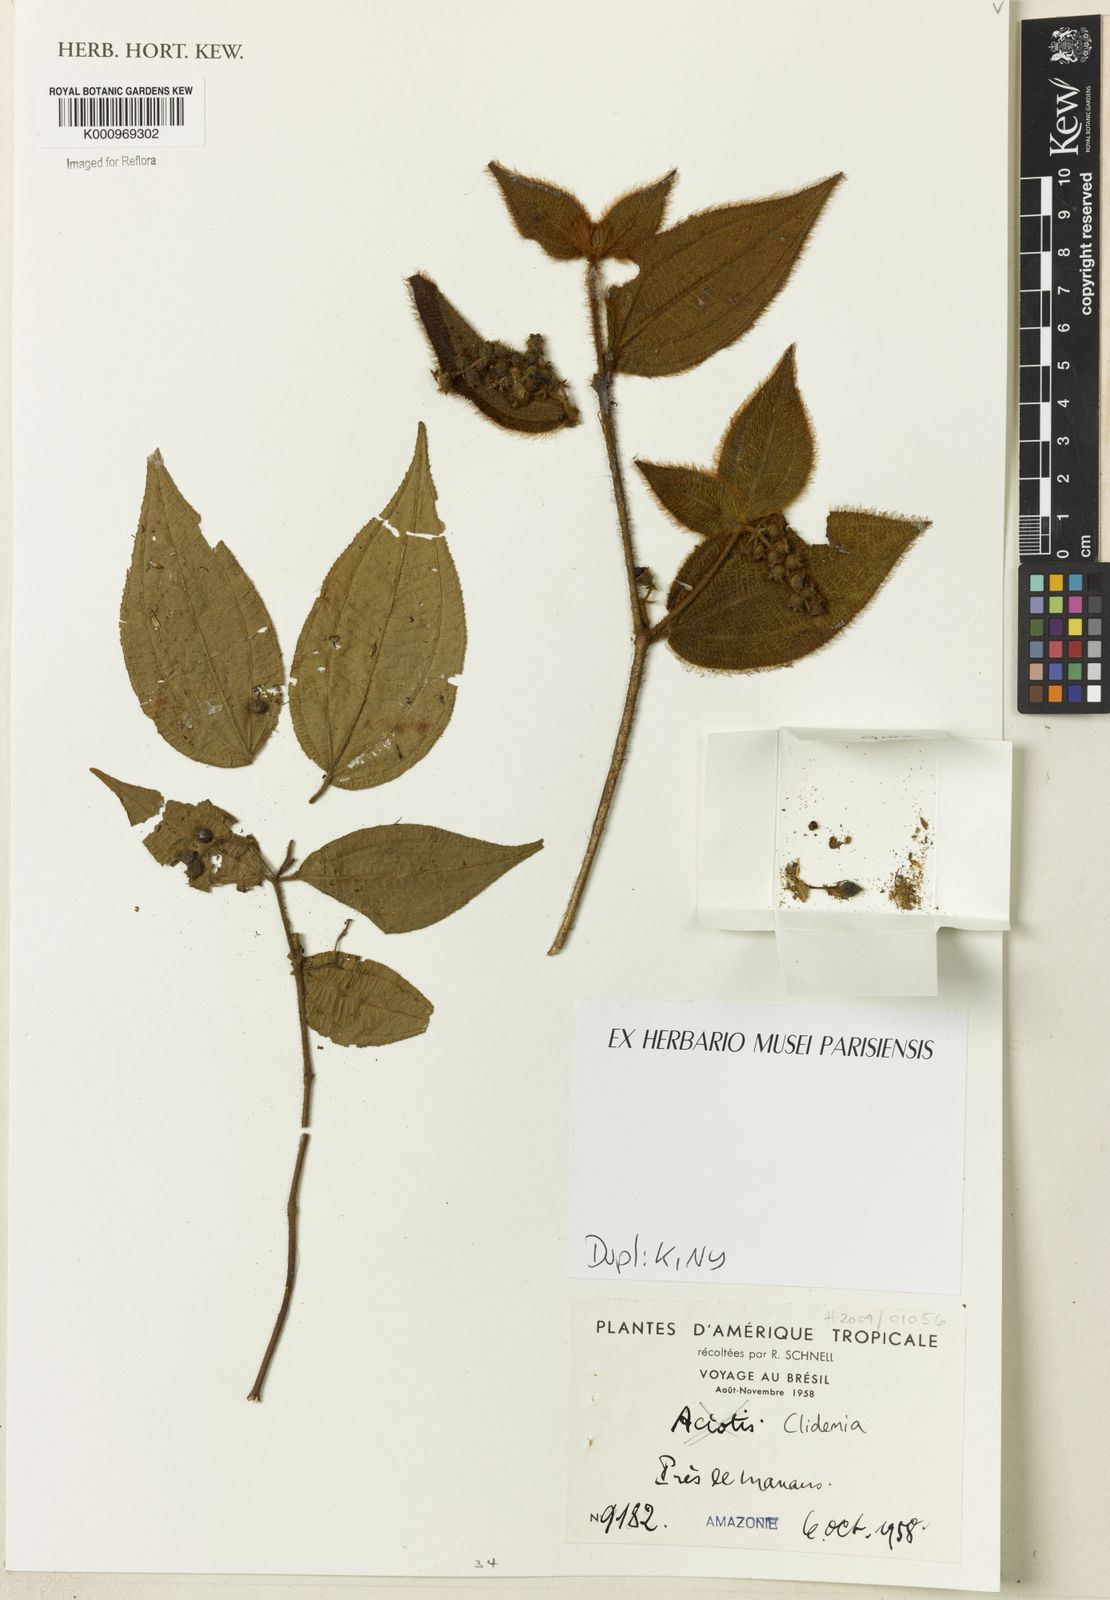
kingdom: Plantae
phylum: Tracheophyta
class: Magnoliopsida
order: Myrtales
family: Melastomataceae
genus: Miconia
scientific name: Miconia
